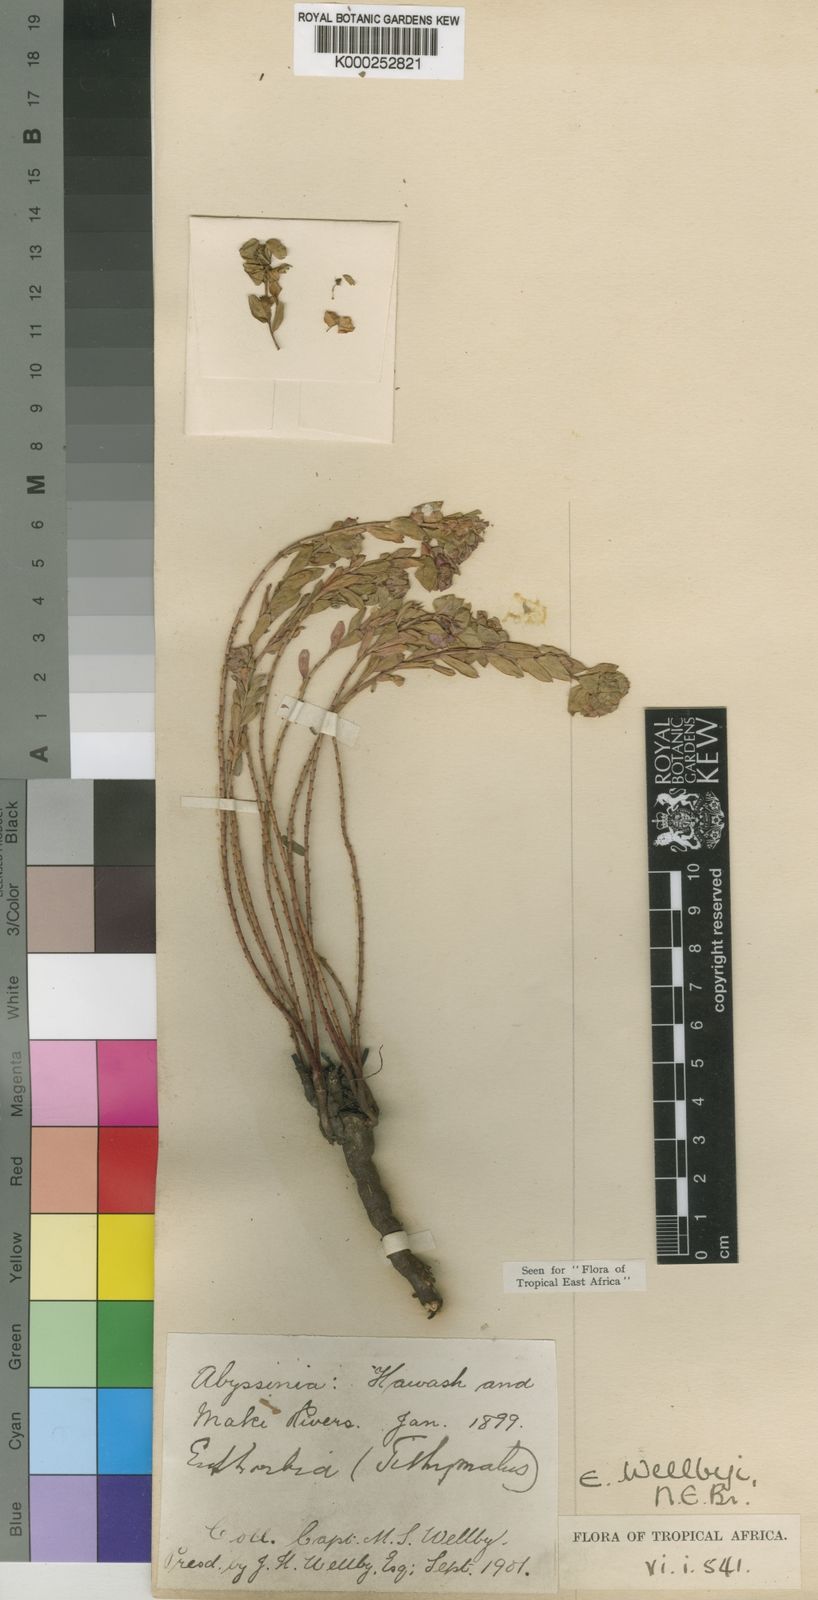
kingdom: Plantae
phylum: Tracheophyta
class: Magnoliopsida
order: Malpighiales
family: Euphorbiaceae
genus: Euphorbia
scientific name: Euphorbia wellbyi
